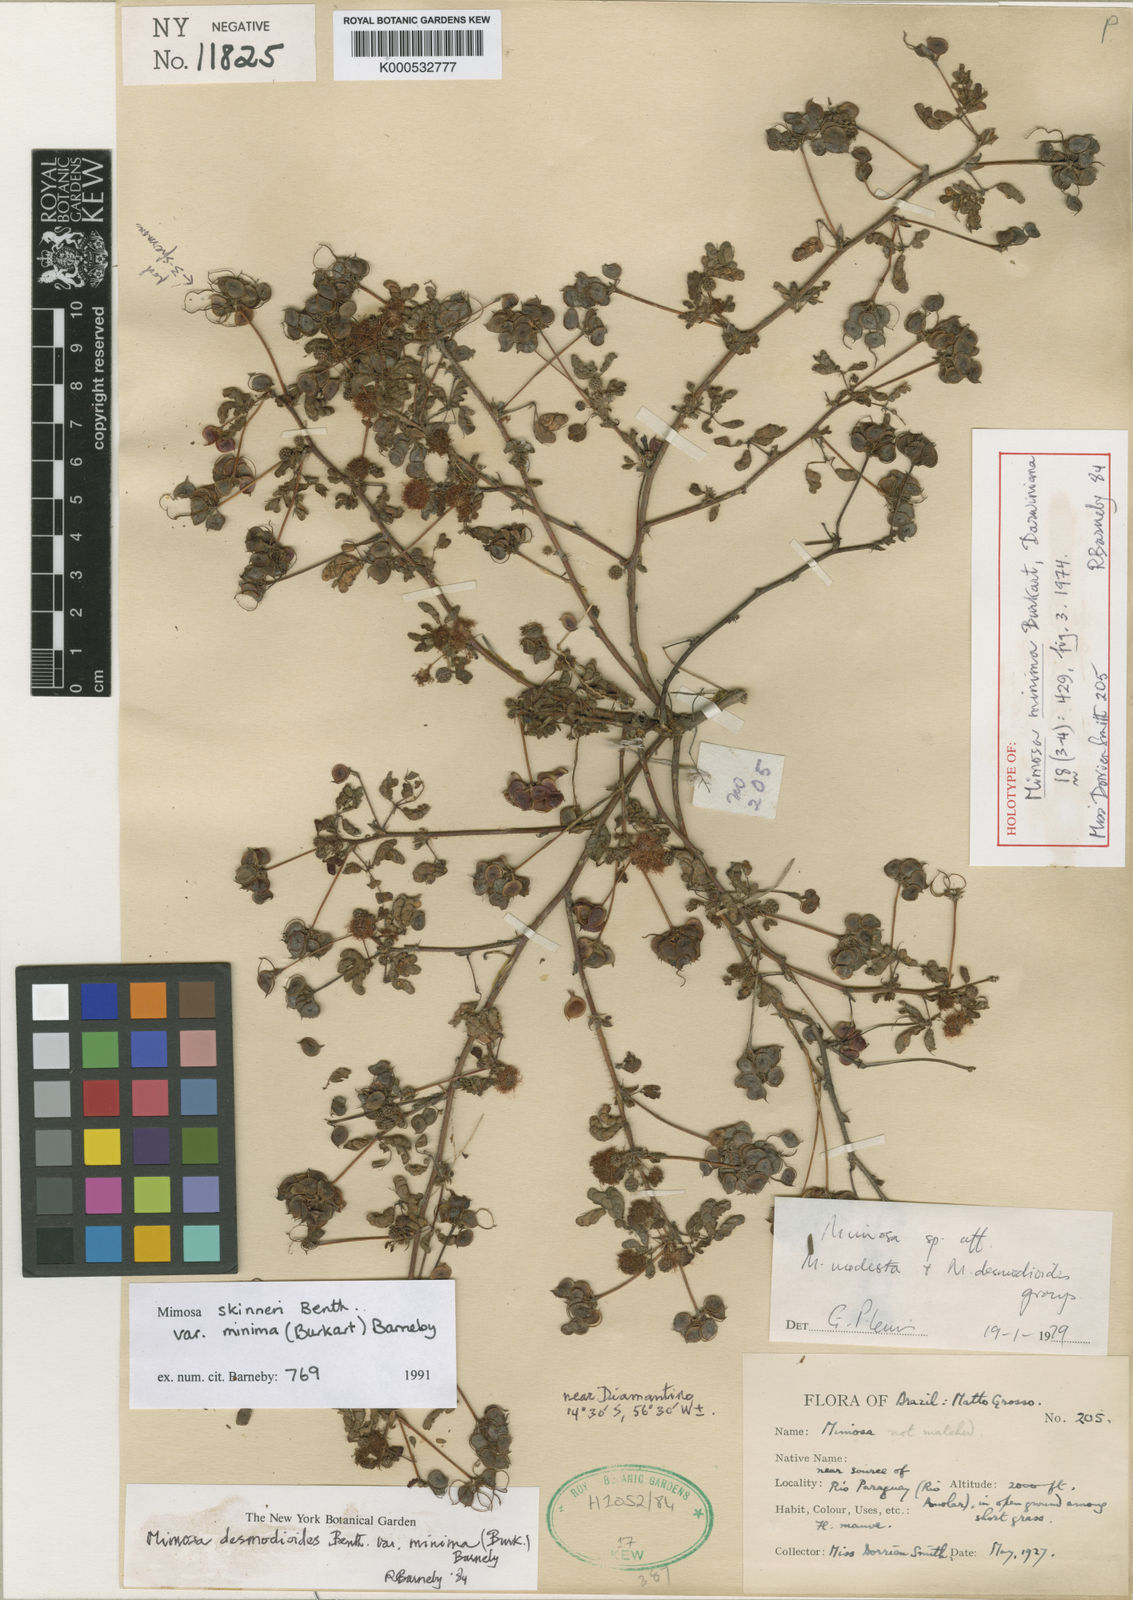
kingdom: Plantae
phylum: Tracheophyta
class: Magnoliopsida
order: Fabales
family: Fabaceae
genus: Mimosa
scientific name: Mimosa skinneri
